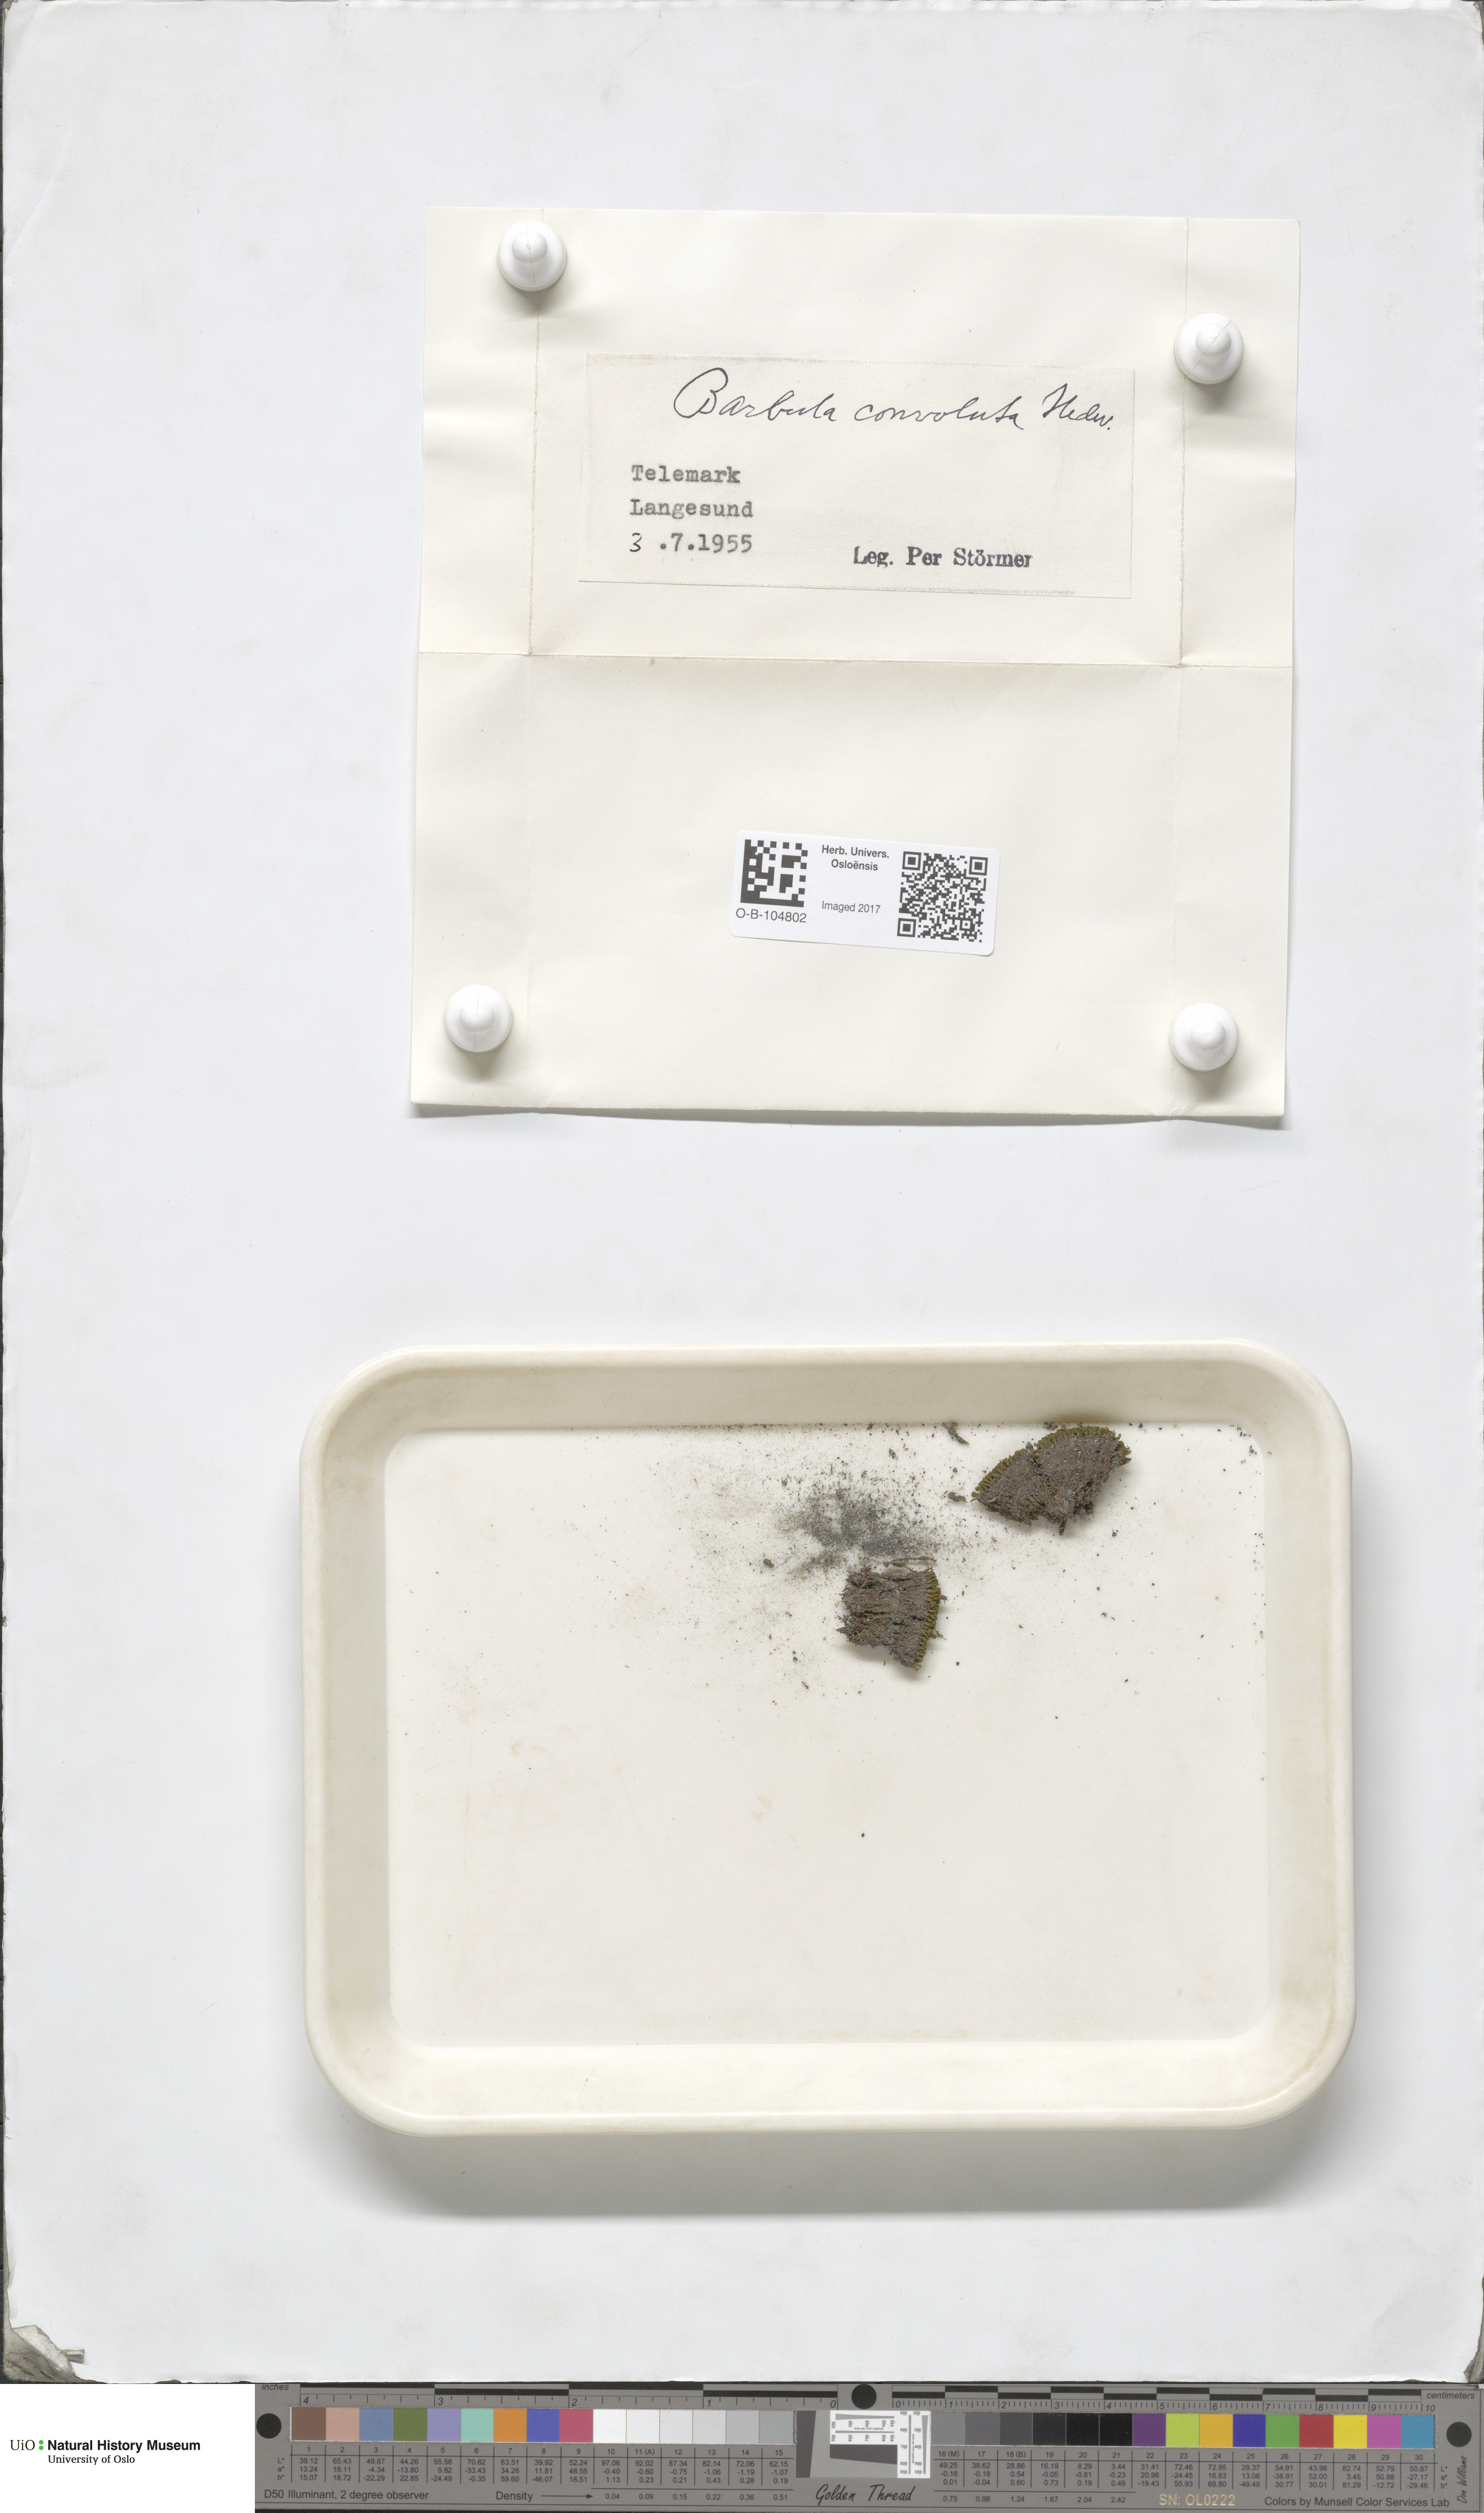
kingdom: Plantae
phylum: Bryophyta
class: Bryopsida
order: Pottiales
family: Pottiaceae
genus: Streblotrichum
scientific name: Streblotrichum convolutum
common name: Lesser bird's-claw beard-moss
